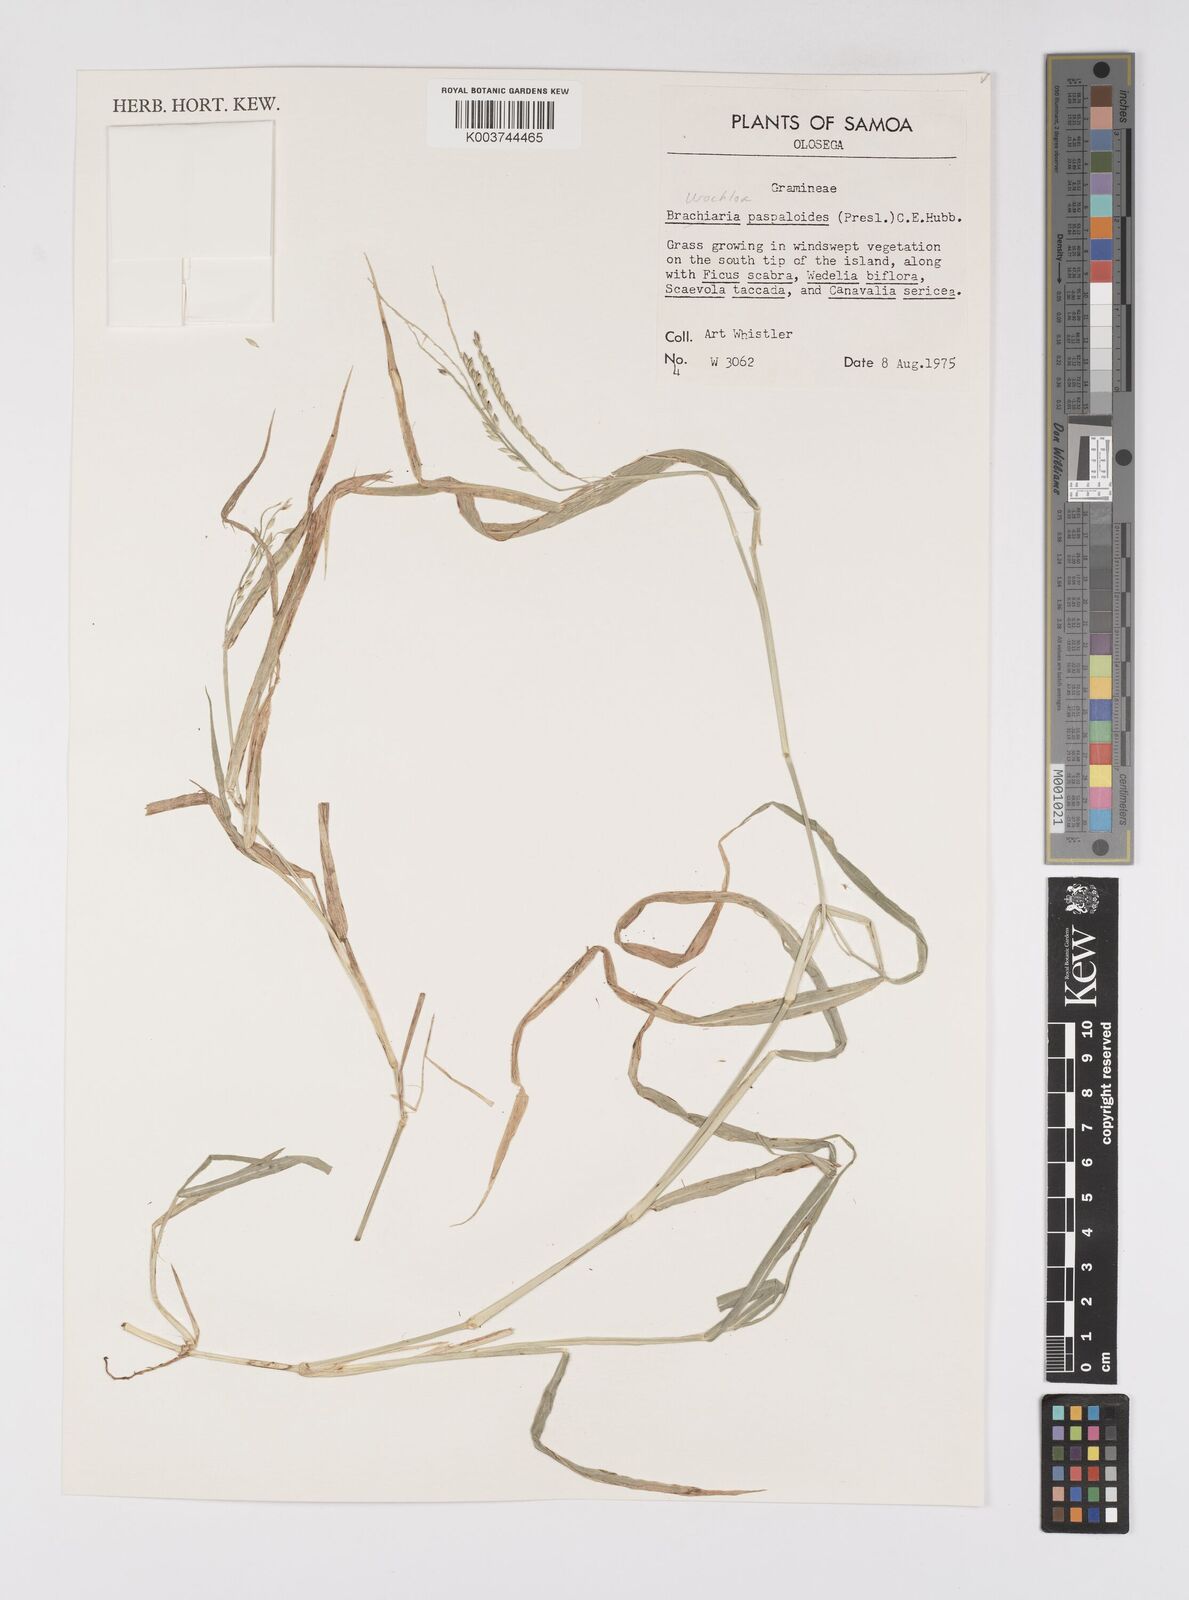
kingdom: Plantae
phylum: Tracheophyta
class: Liliopsida
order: Poales
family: Poaceae
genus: Urochloa
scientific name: Urochloa glumaris
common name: Thurston grass
